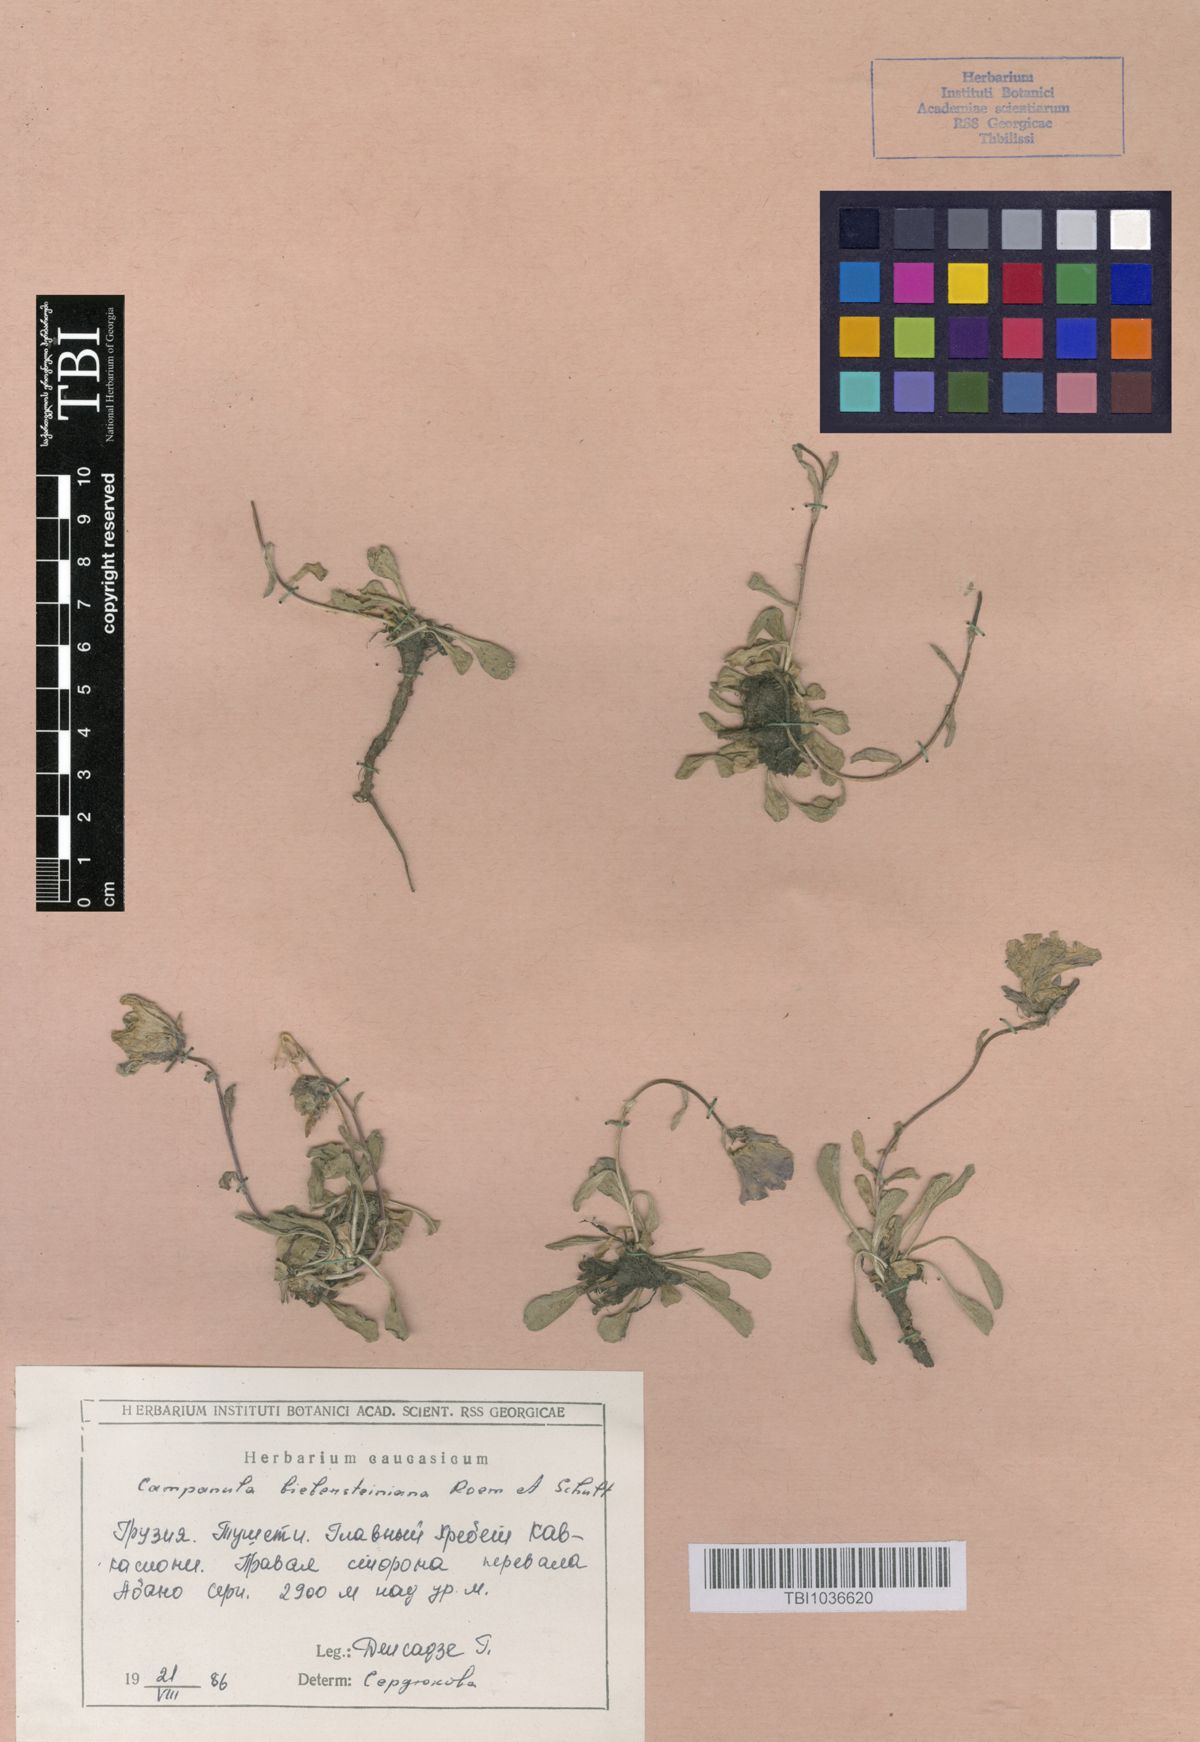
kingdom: Plantae
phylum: Tracheophyta
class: Magnoliopsida
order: Asterales
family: Campanulaceae
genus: Campanula
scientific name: Campanula tridentata
